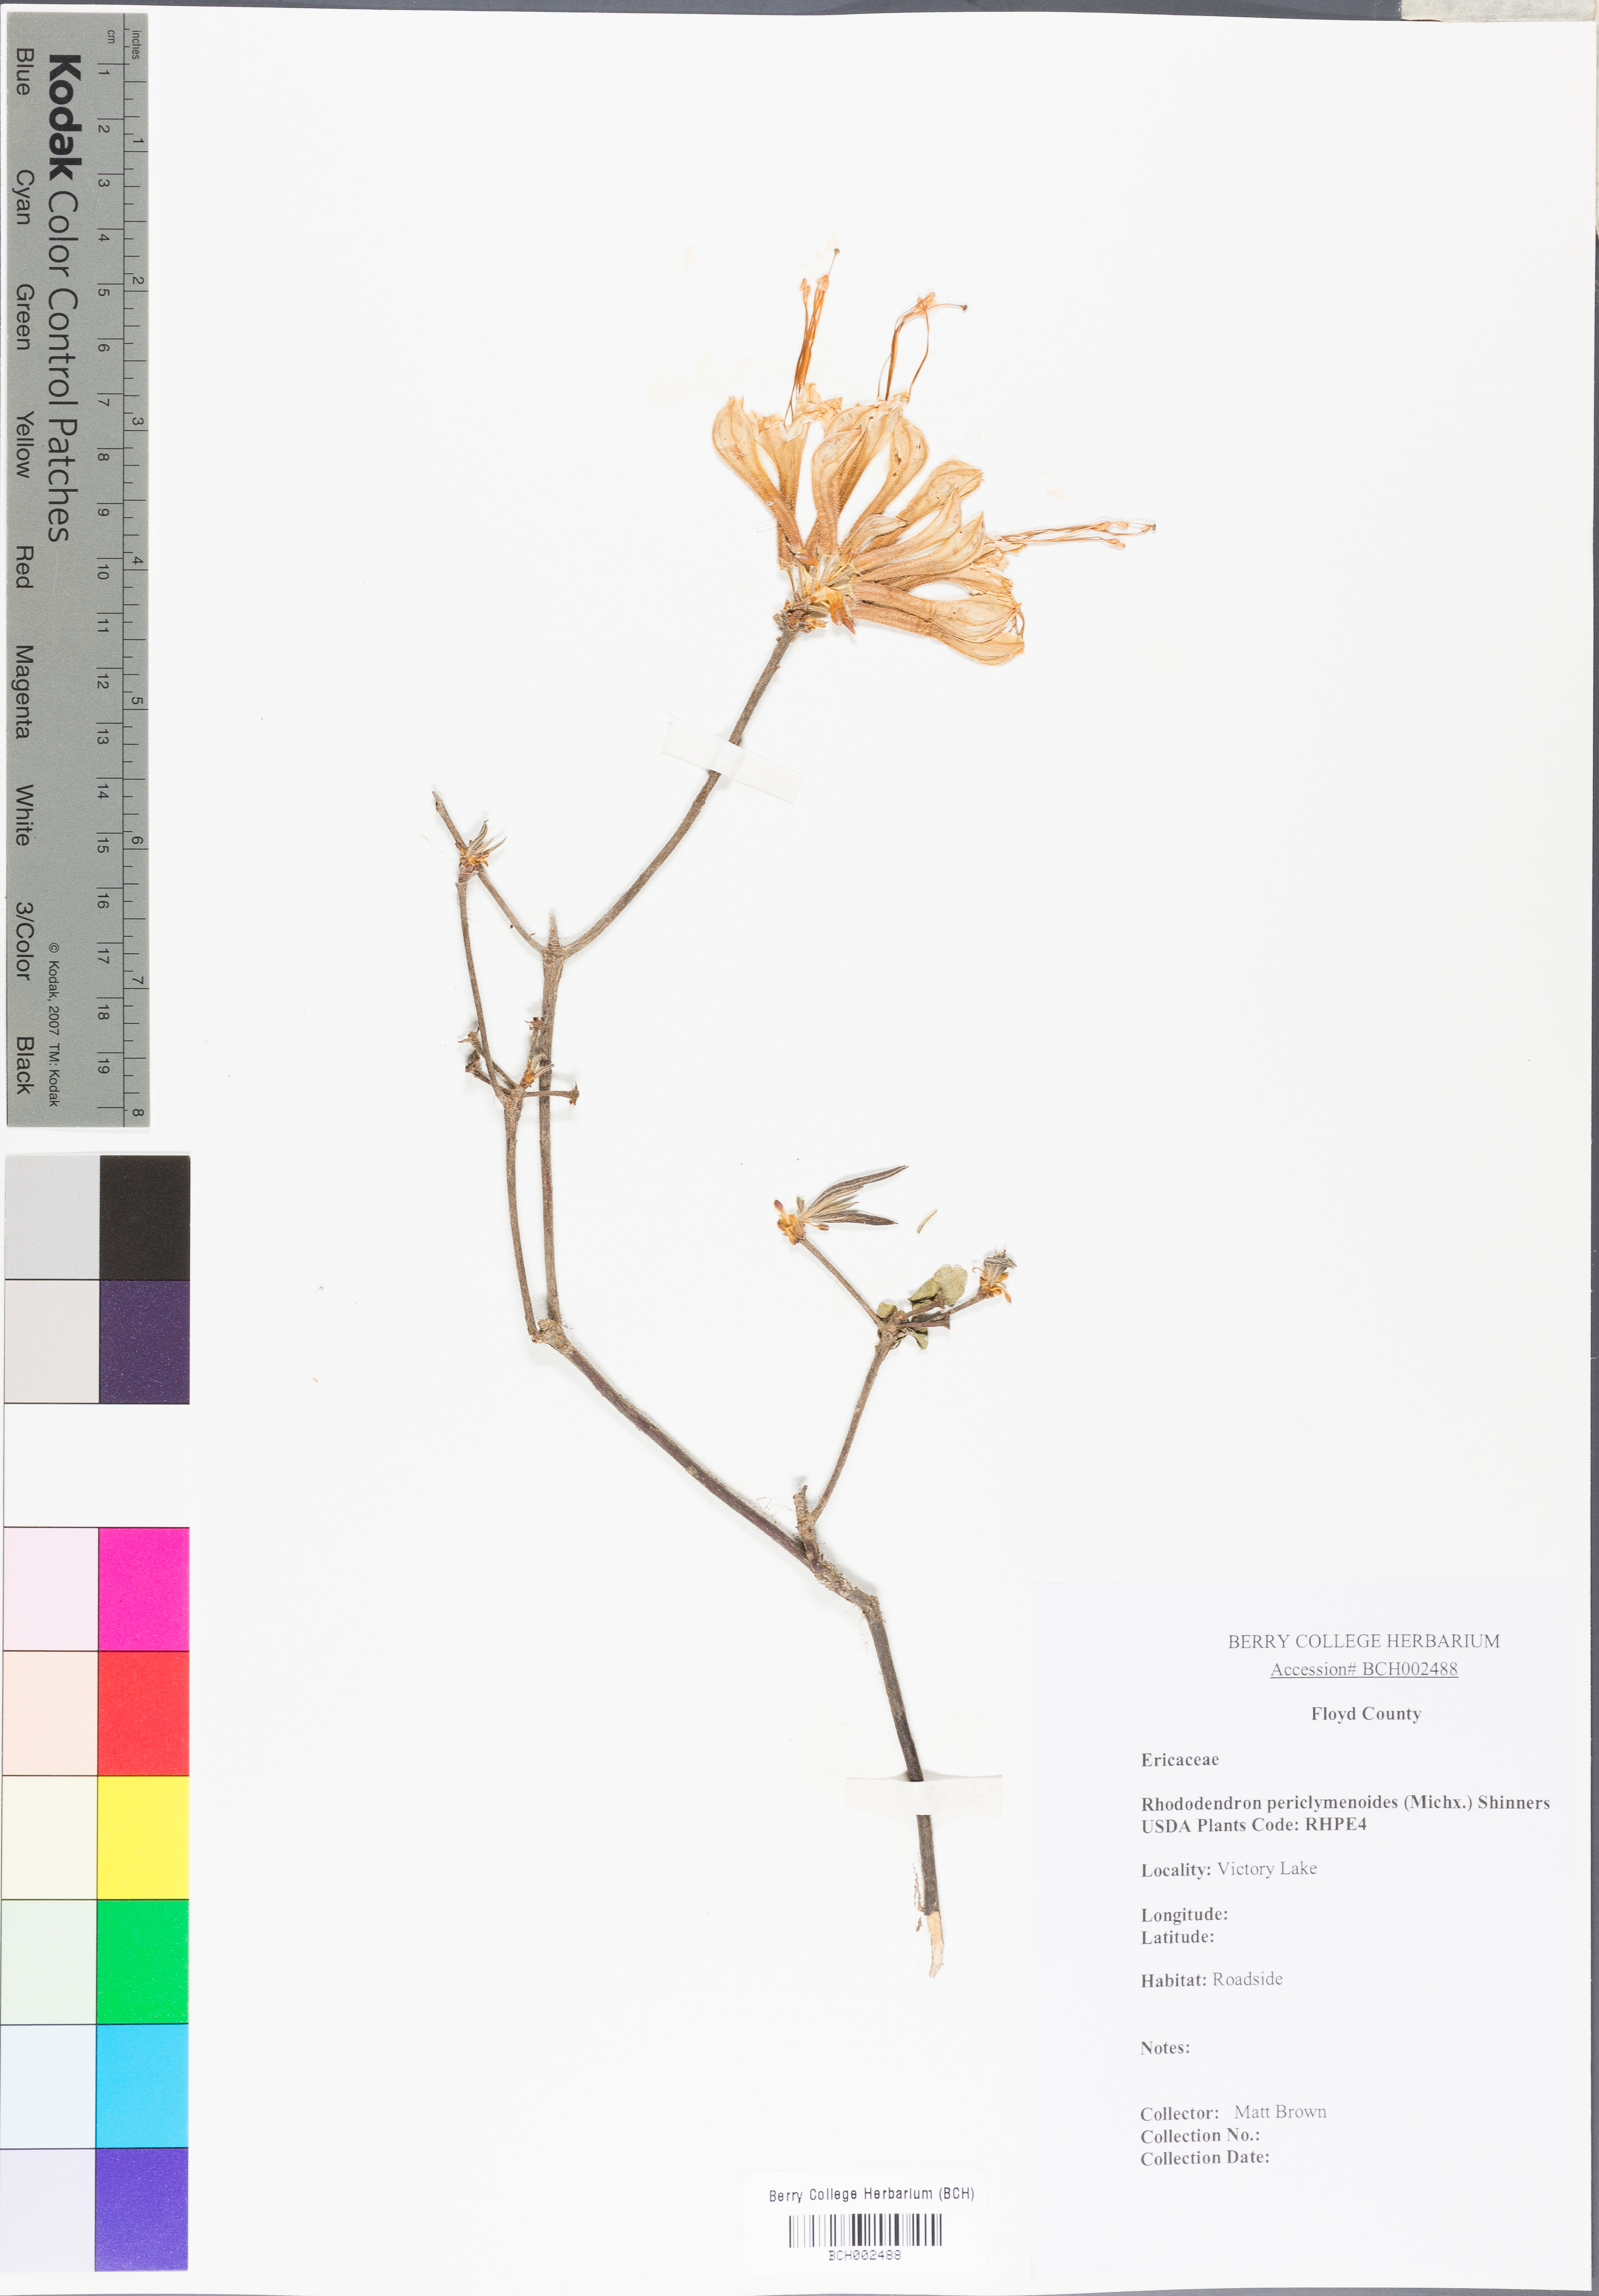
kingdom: Plantae
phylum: Tracheophyta
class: Magnoliopsida
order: Ericales
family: Ericaceae
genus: Rhododendron
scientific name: Rhododendron periclymenoides
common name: Election-pink
